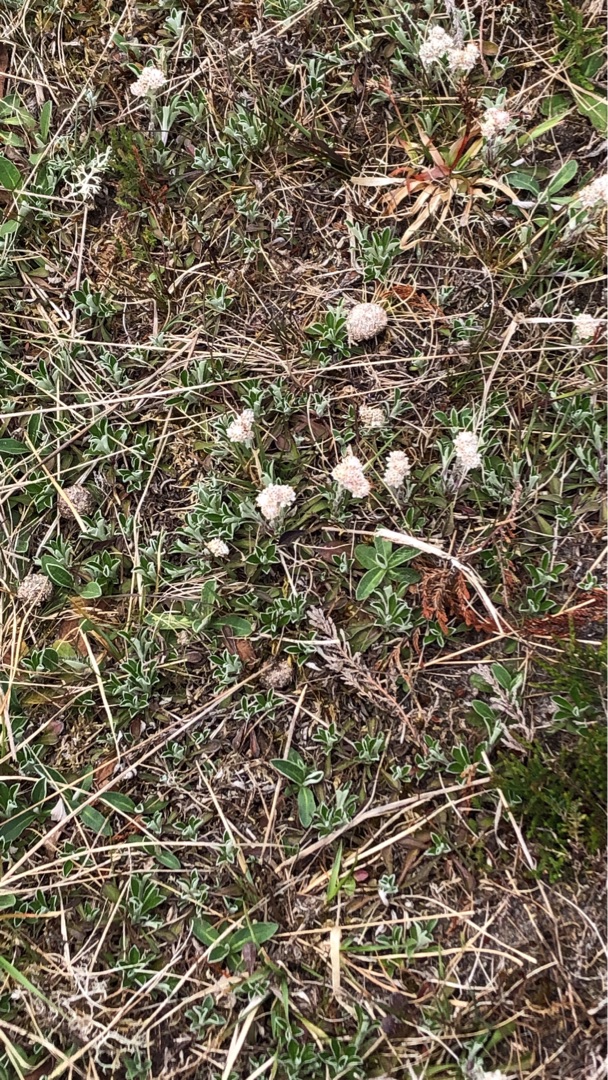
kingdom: Plantae
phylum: Tracheophyta
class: Magnoliopsida
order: Asterales
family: Asteraceae
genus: Antennaria
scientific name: Antennaria dioica
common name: Kattefod
